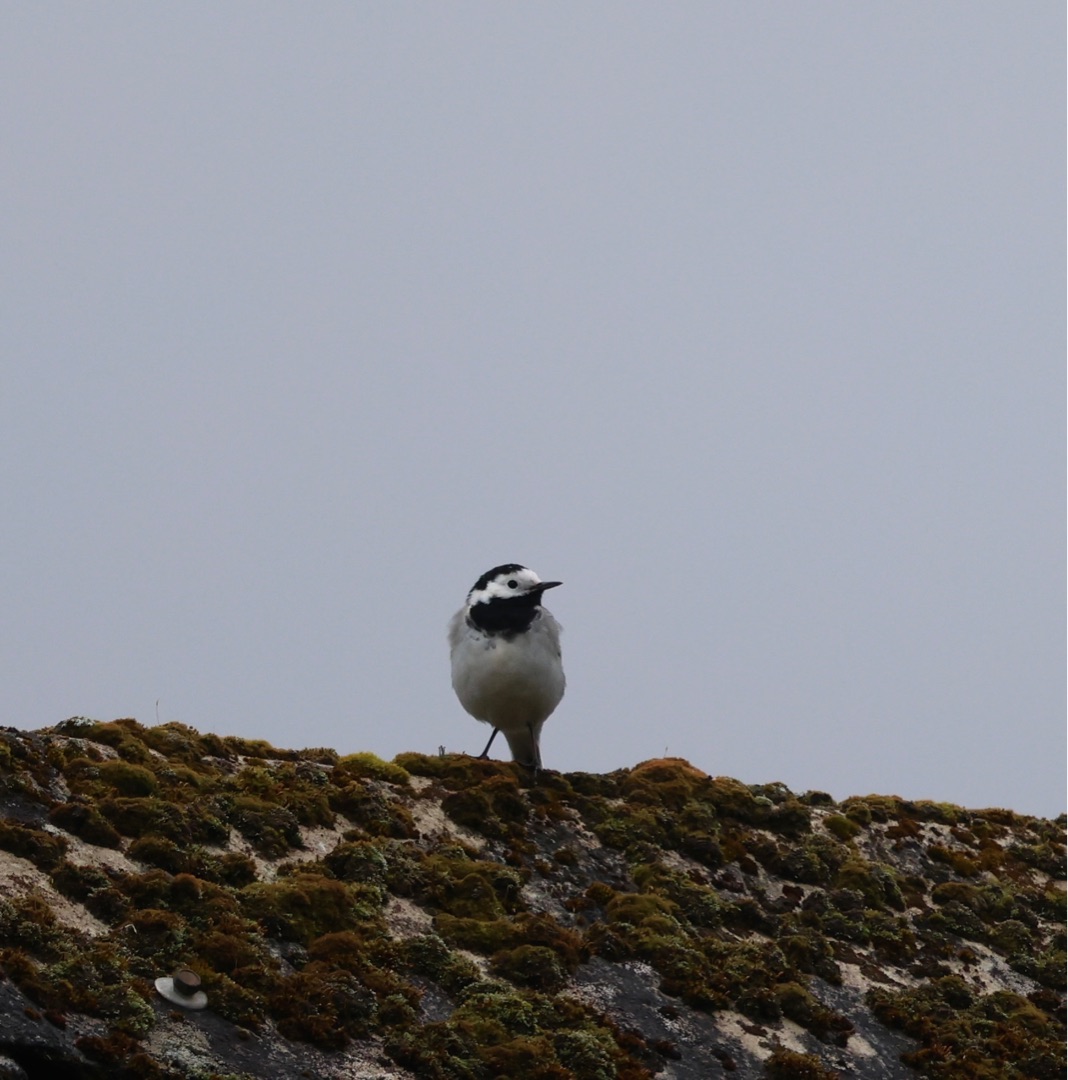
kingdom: Animalia
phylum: Chordata
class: Aves
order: Passeriformes
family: Motacillidae
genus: Motacilla
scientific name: Motacilla alba
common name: Hvid vipstjert
